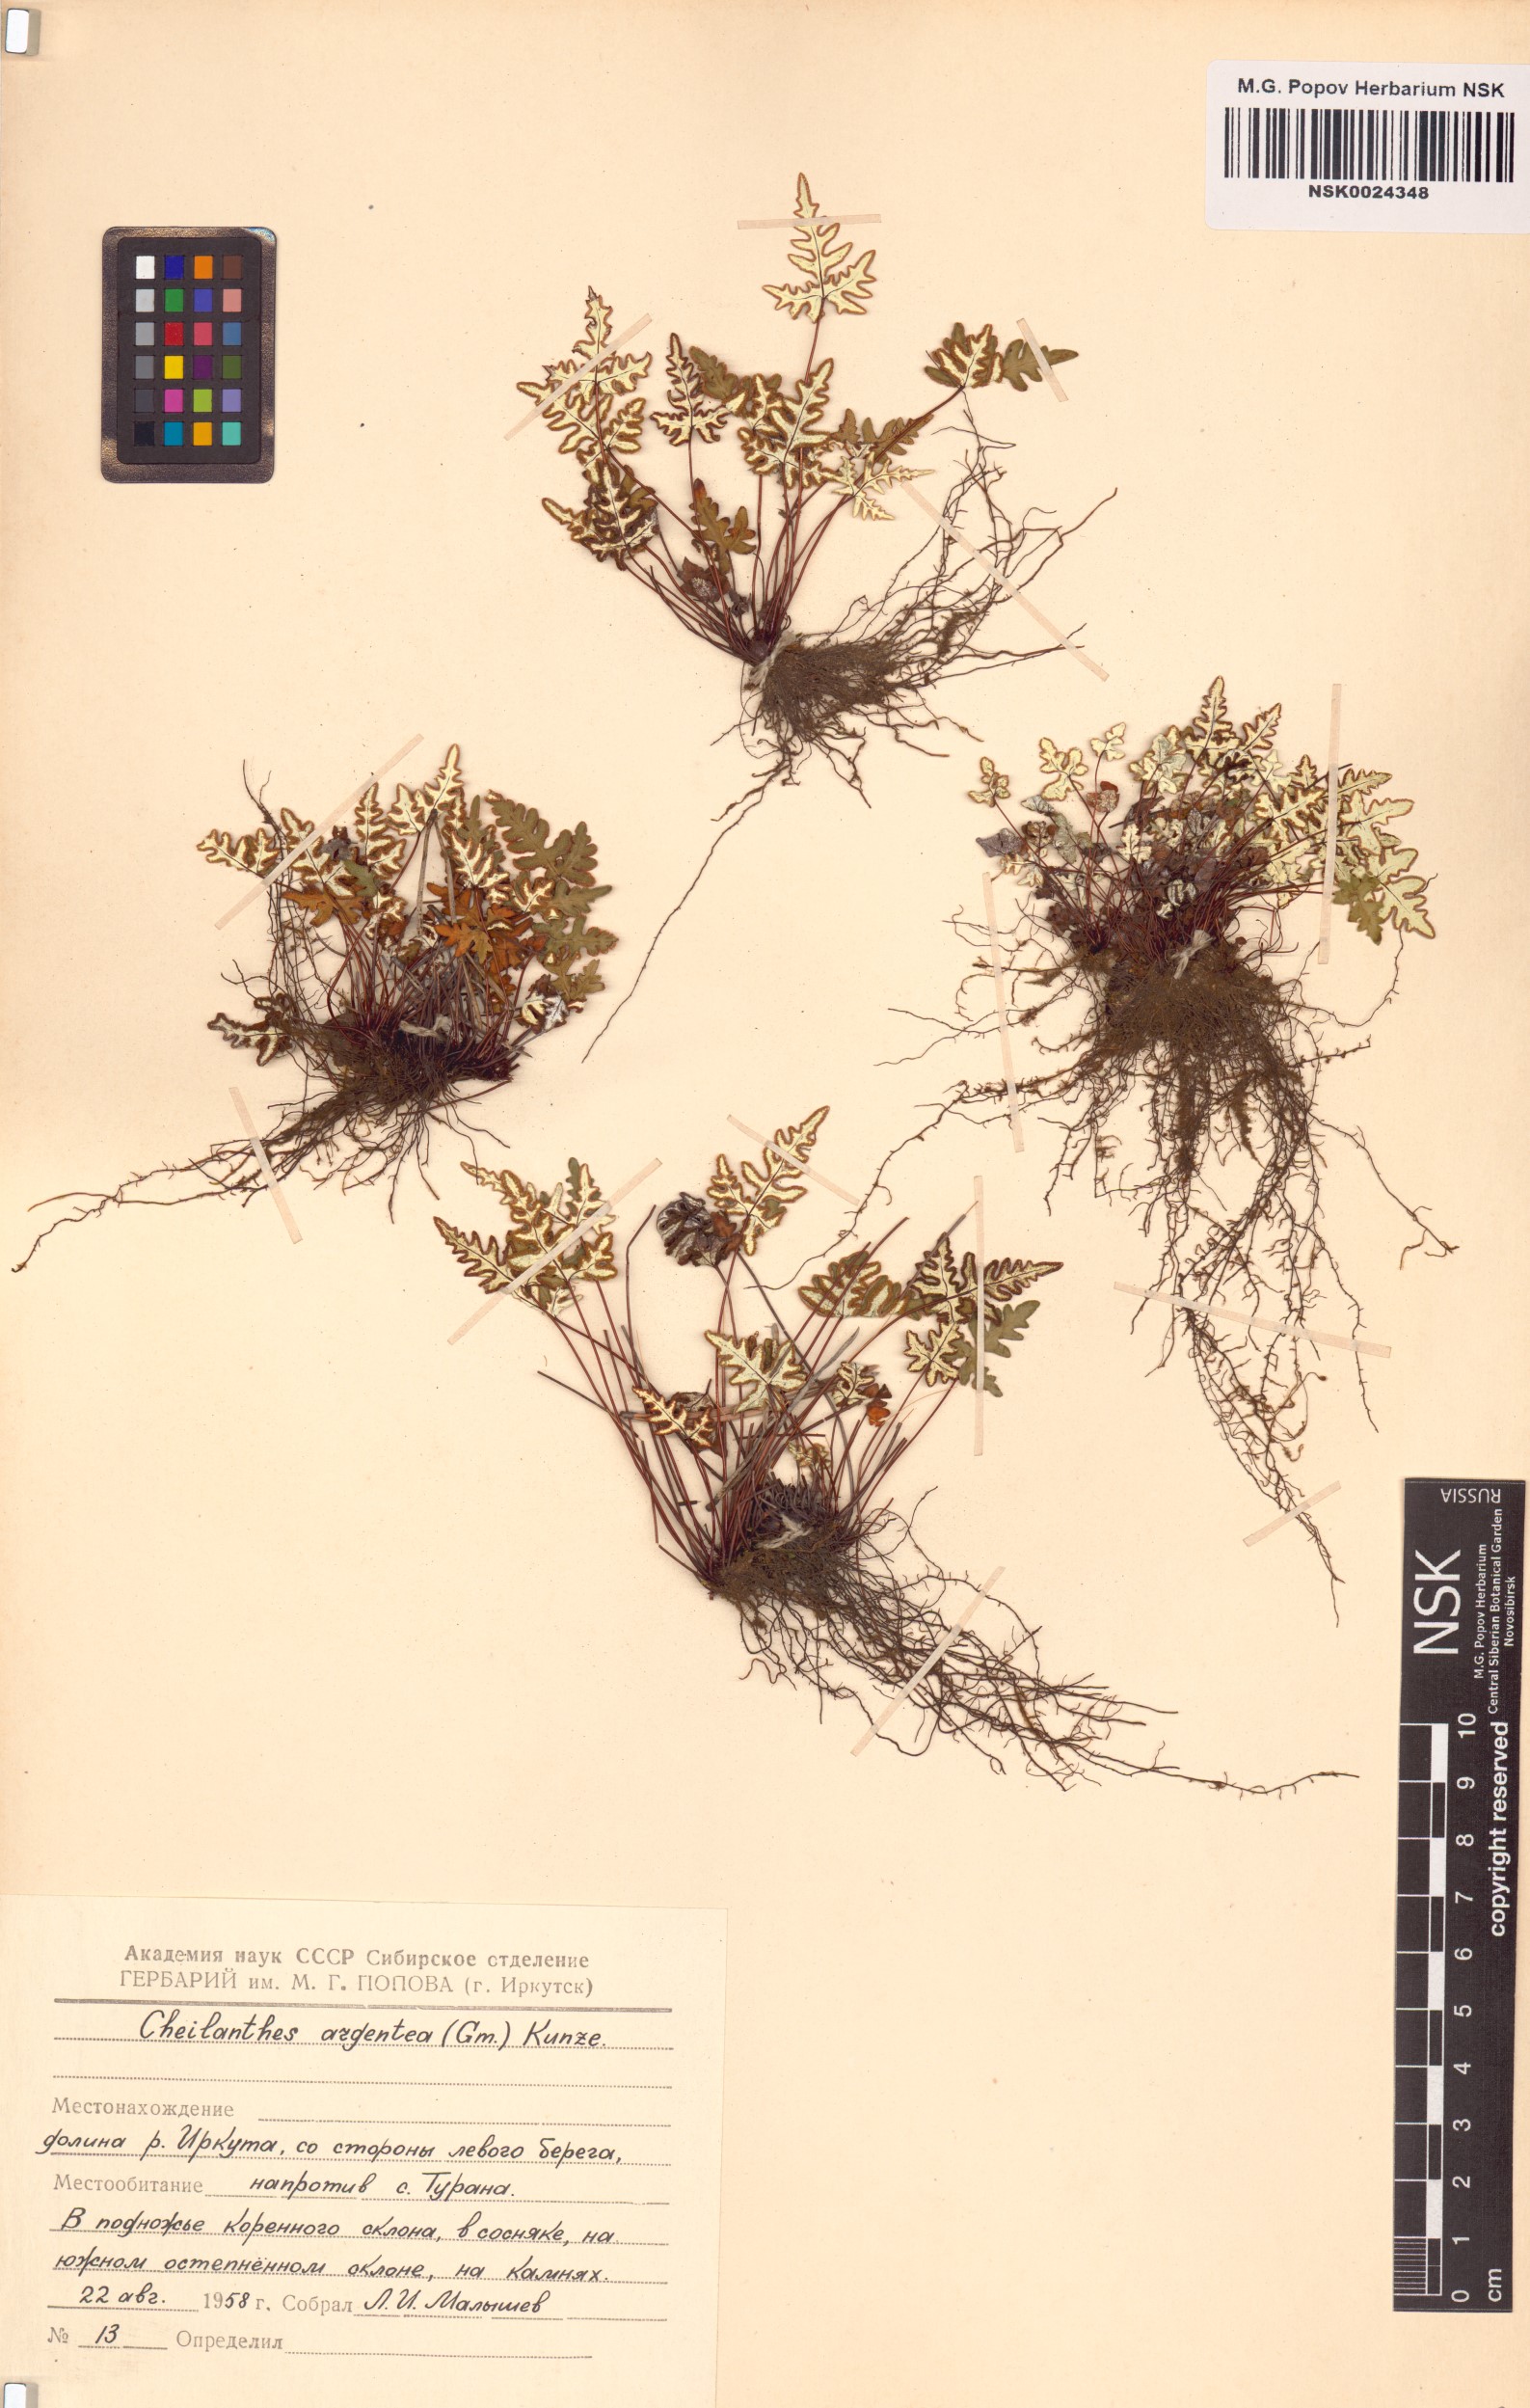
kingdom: Plantae
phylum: Tracheophyta
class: Polypodiopsida
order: Polypodiales
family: Pteridaceae
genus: Aleuritopteris
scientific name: Aleuritopteris argentea
